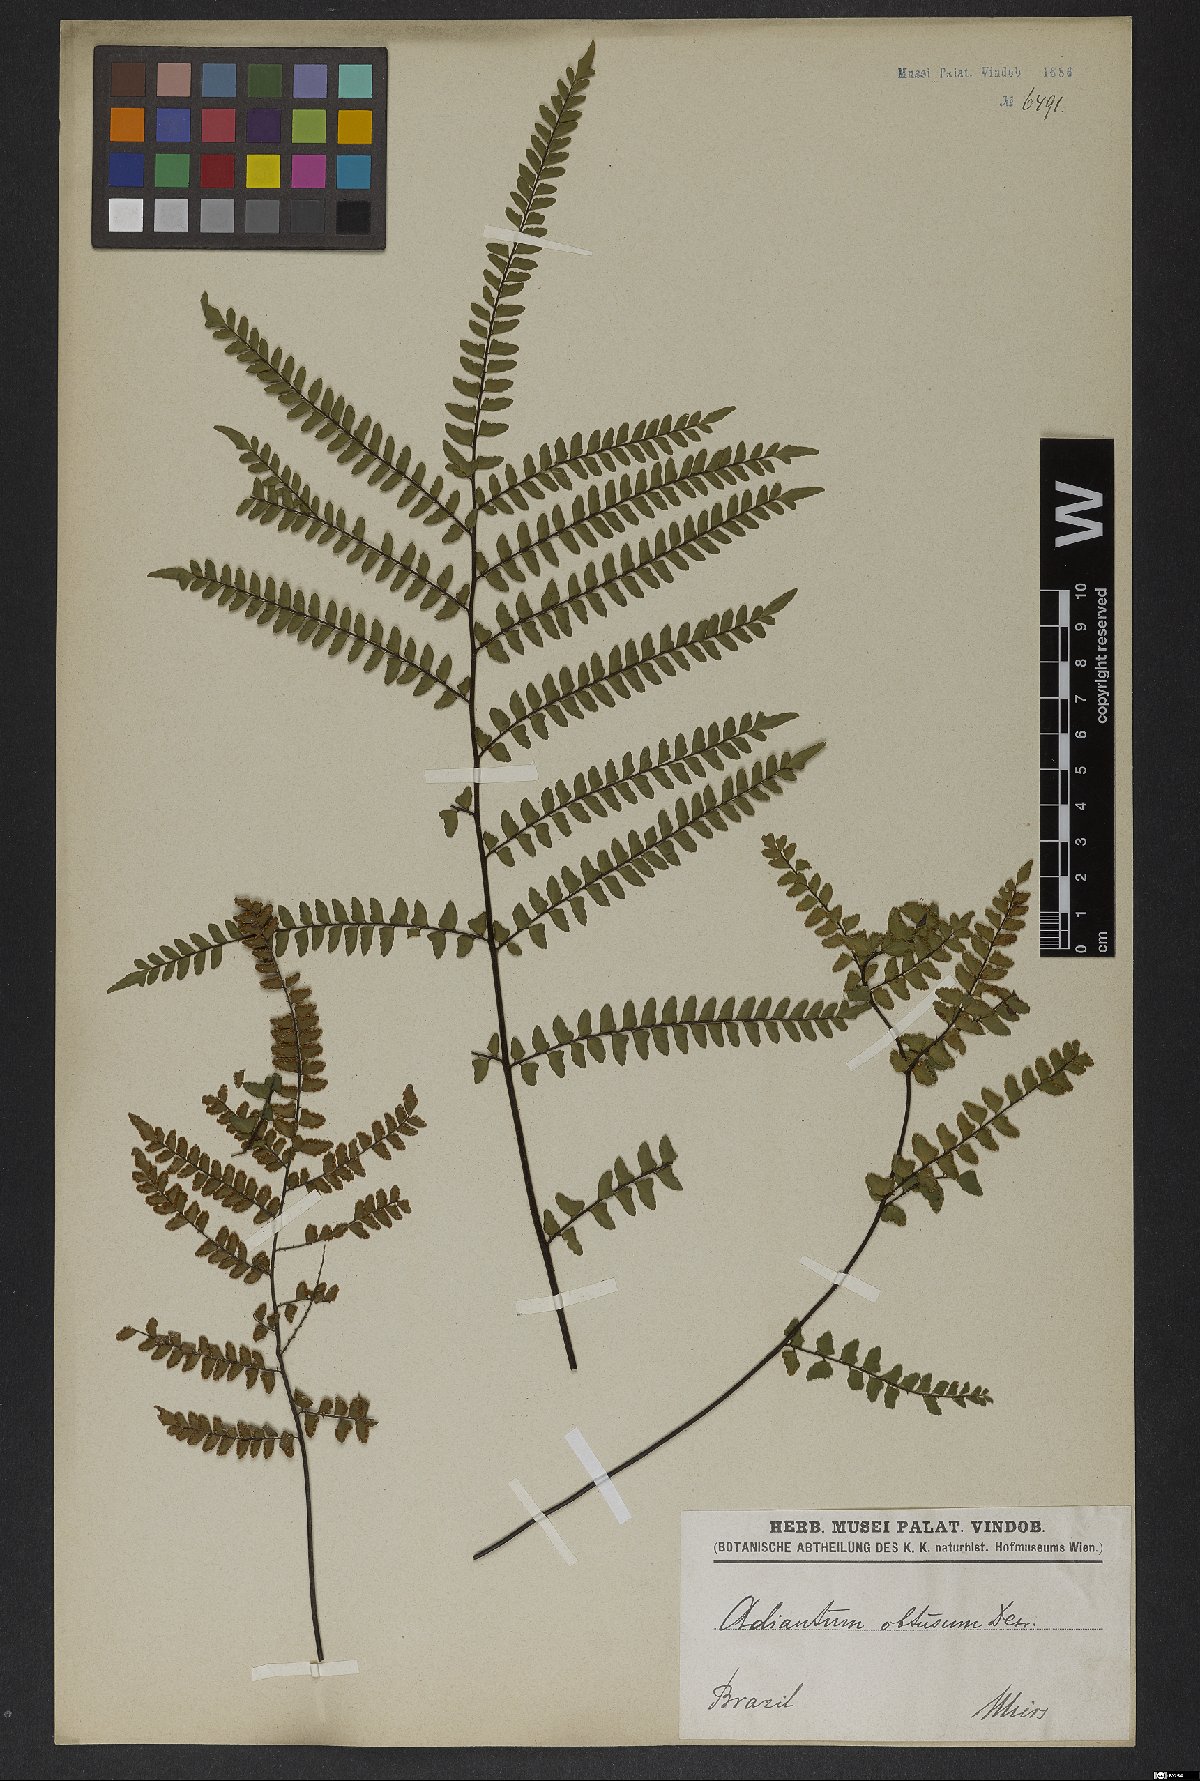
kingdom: Plantae
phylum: Tracheophyta
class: Polypodiopsida
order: Polypodiales
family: Pteridaceae
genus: Adiantum
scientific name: Adiantum serratodentatum
